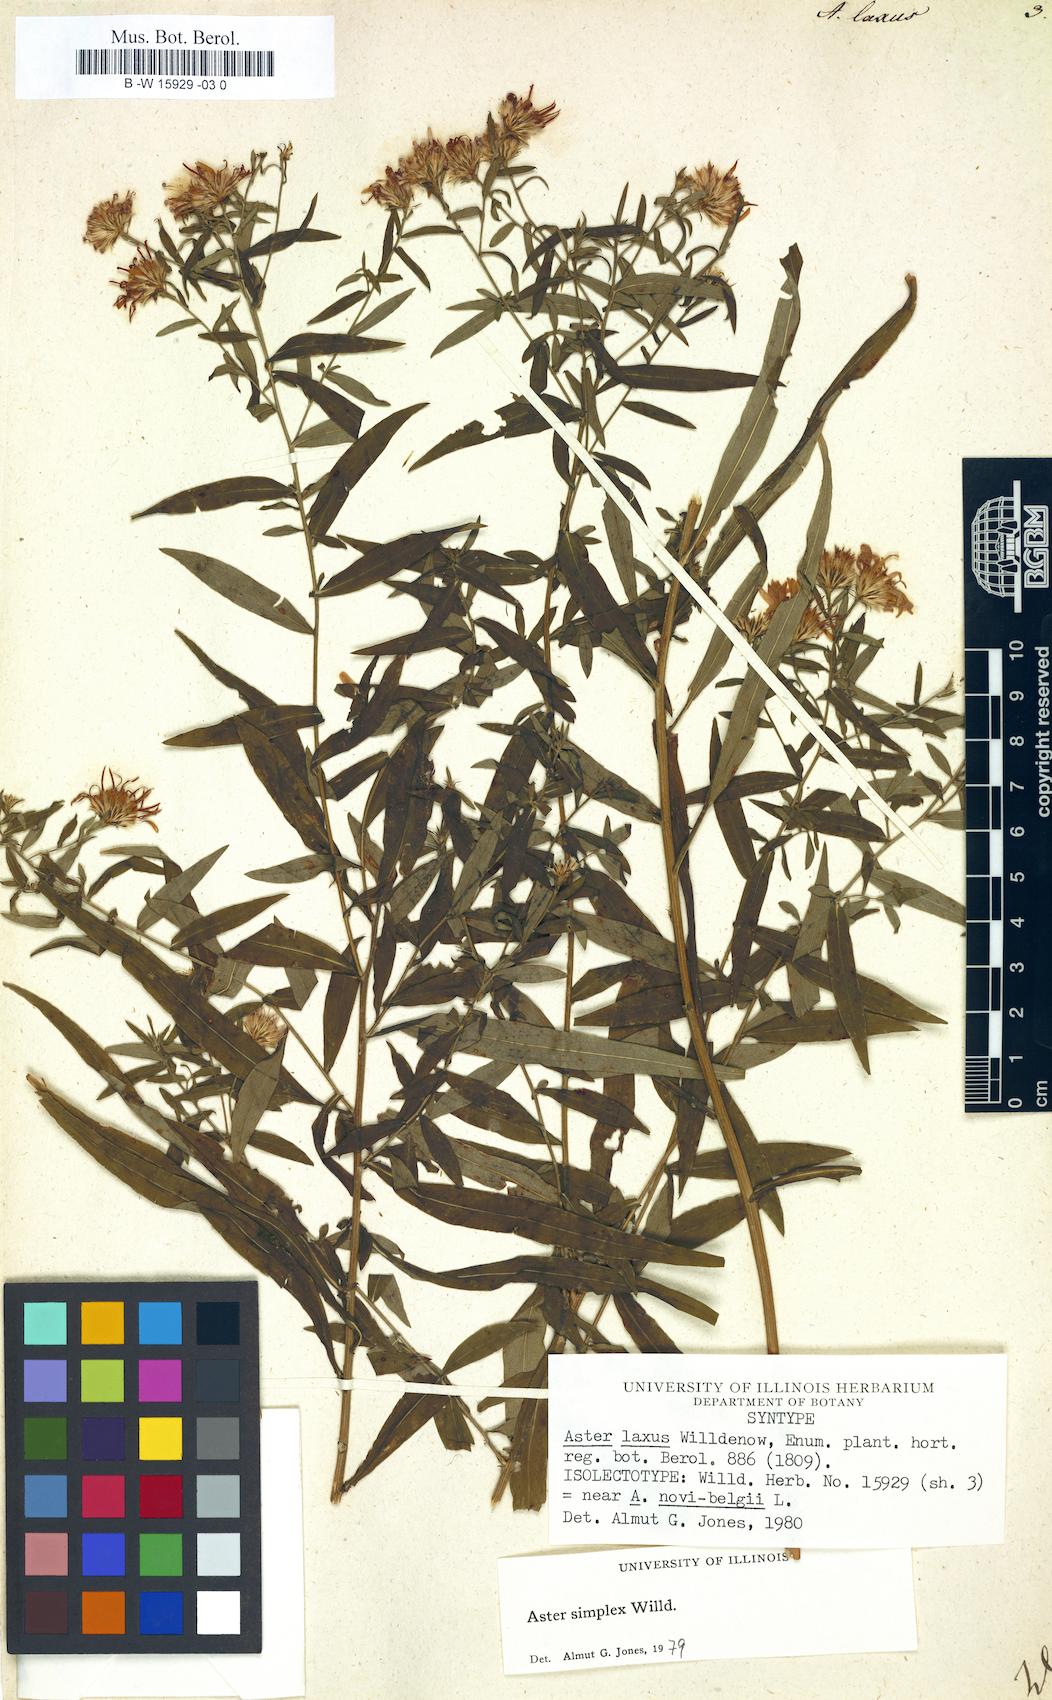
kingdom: Plantae
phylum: Tracheophyta
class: Magnoliopsida
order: Asterales
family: Asteraceae
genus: Symphyotrichum
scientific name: Symphyotrichum lanceolatum
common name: Panicled aster
